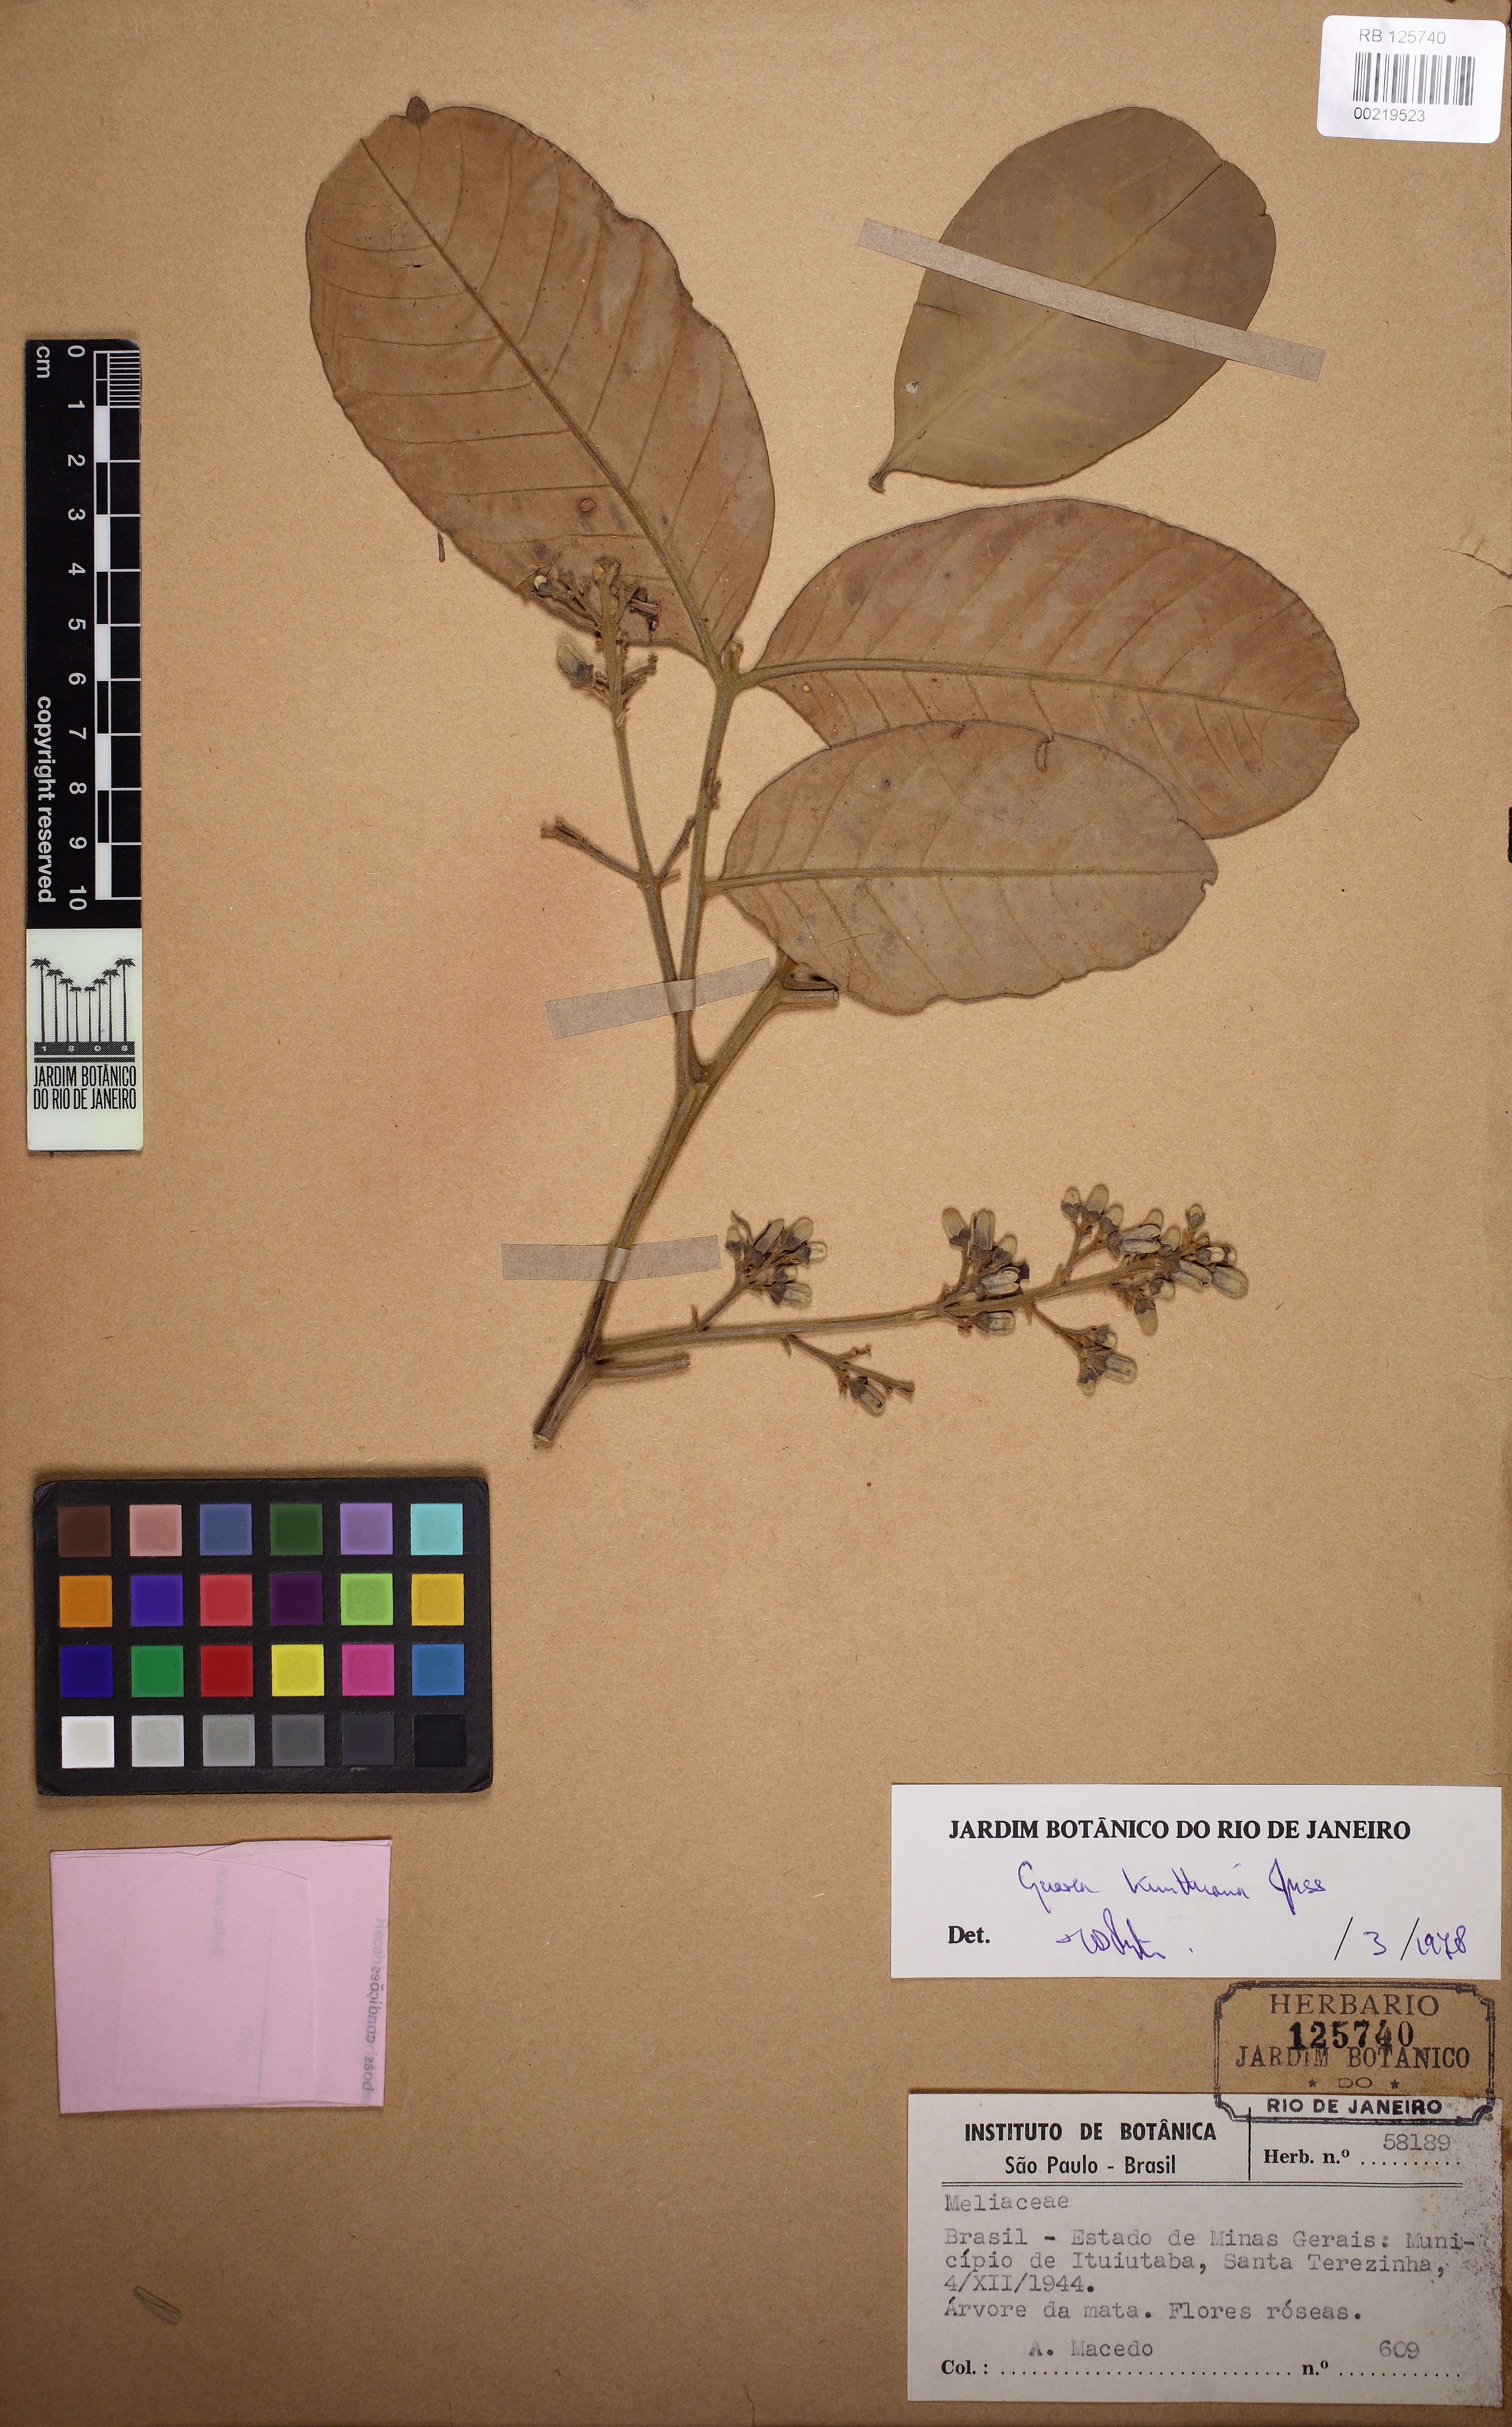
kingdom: Plantae
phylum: Tracheophyta
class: Magnoliopsida
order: Sapindales
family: Meliaceae
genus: Guarea
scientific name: Guarea kunthiana
